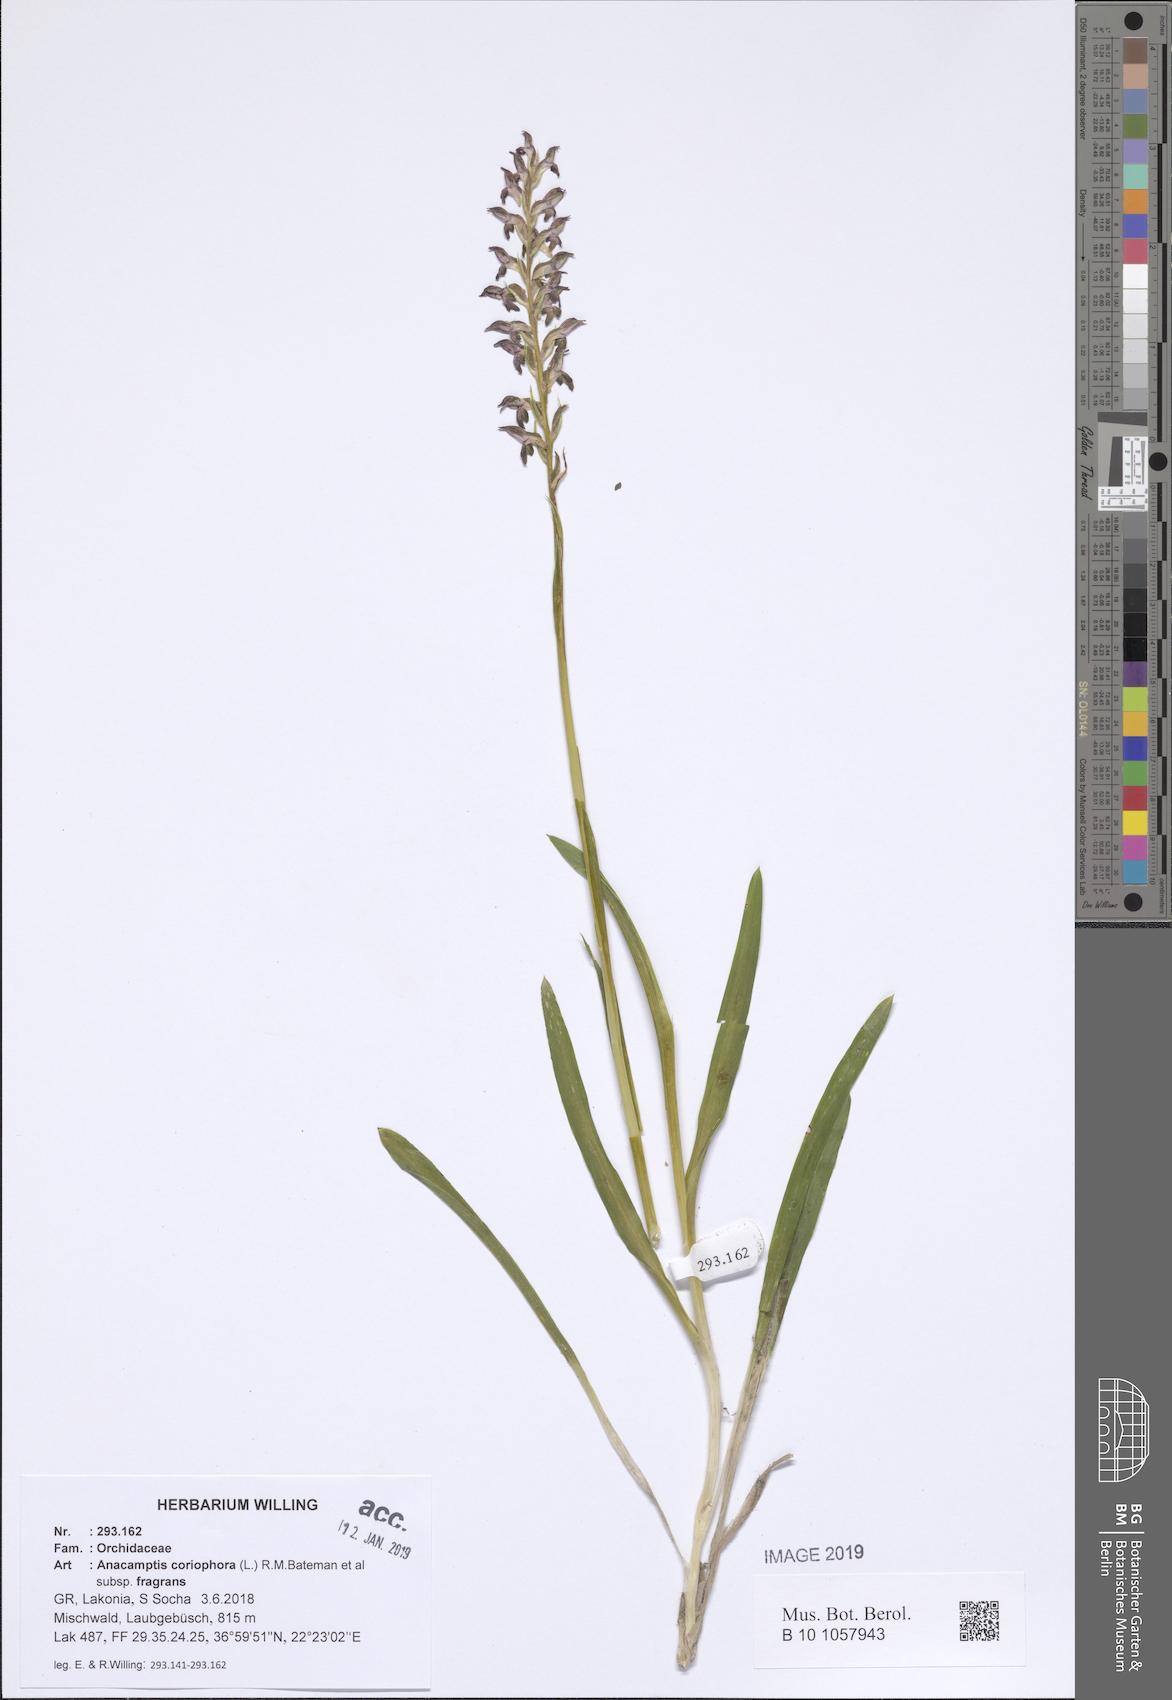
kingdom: Plantae
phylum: Tracheophyta
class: Liliopsida
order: Asparagales
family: Orchidaceae
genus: Anacamptis
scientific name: Anacamptis coriophora
